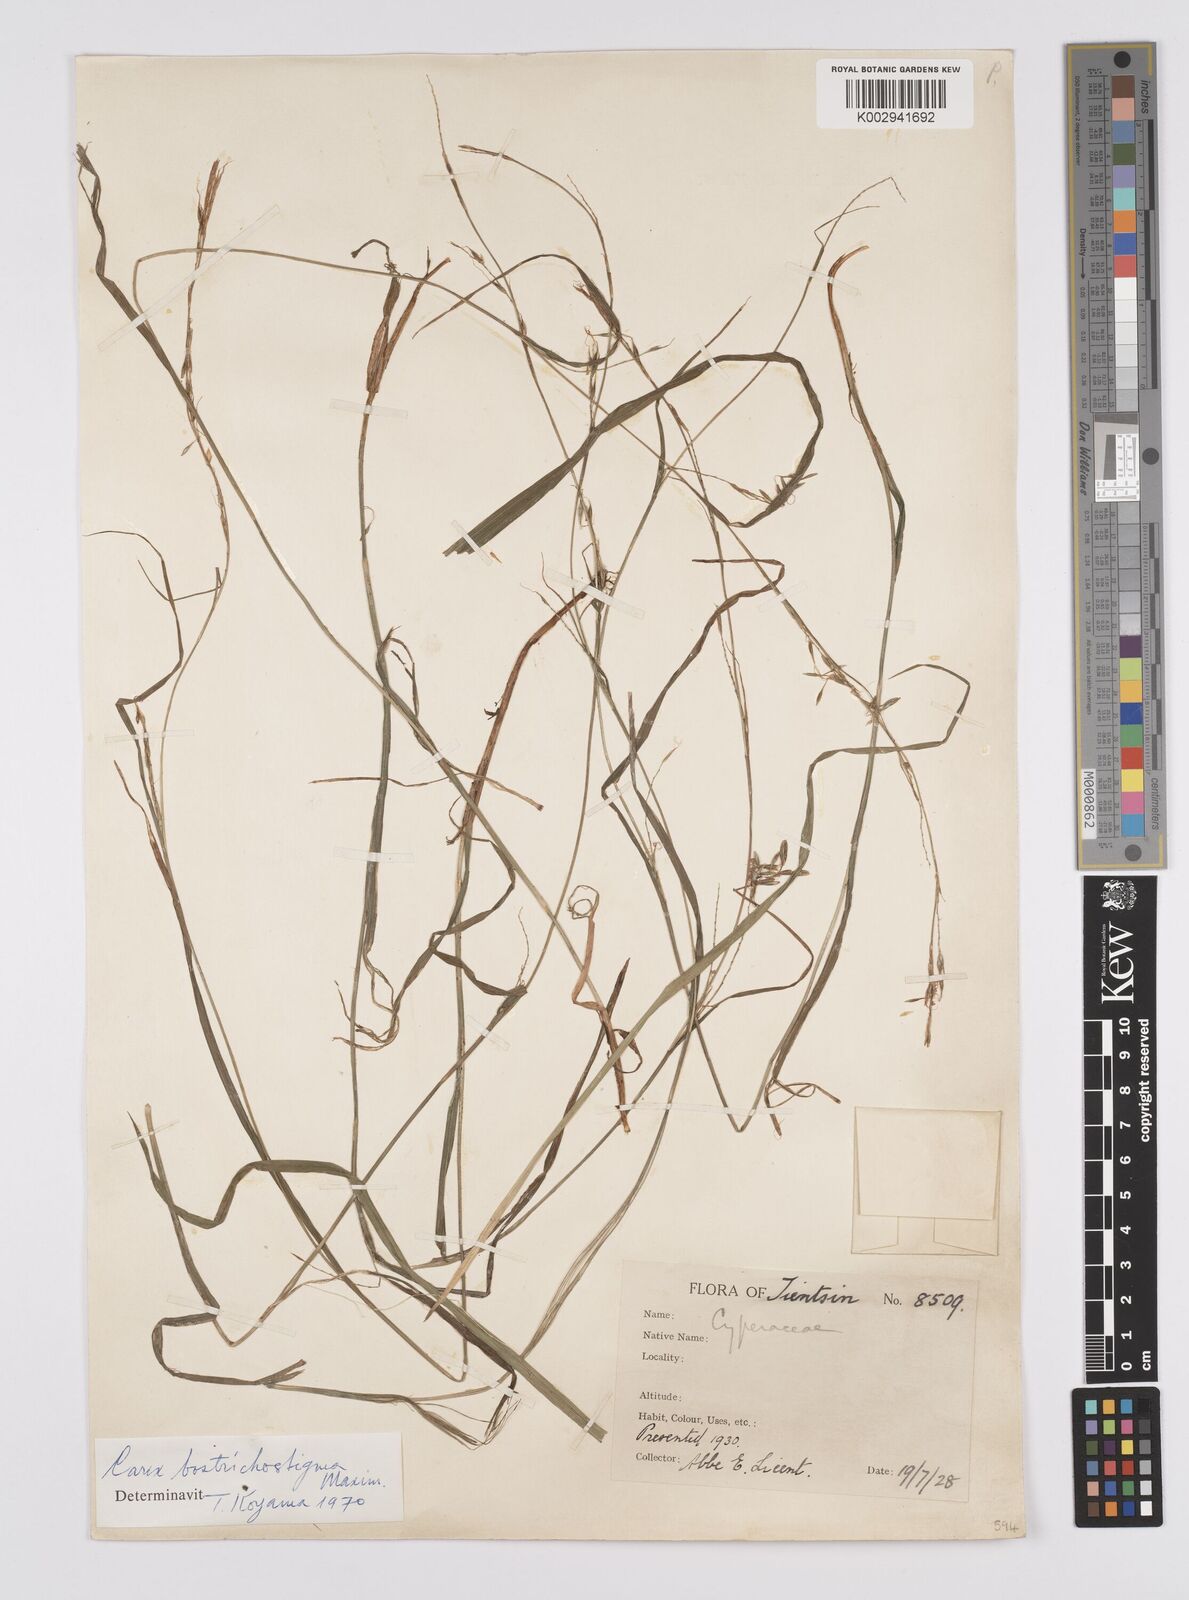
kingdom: Plantae
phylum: Tracheophyta
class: Liliopsida
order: Poales
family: Cyperaceae
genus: Carex
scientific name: Carex bostrychostigma
